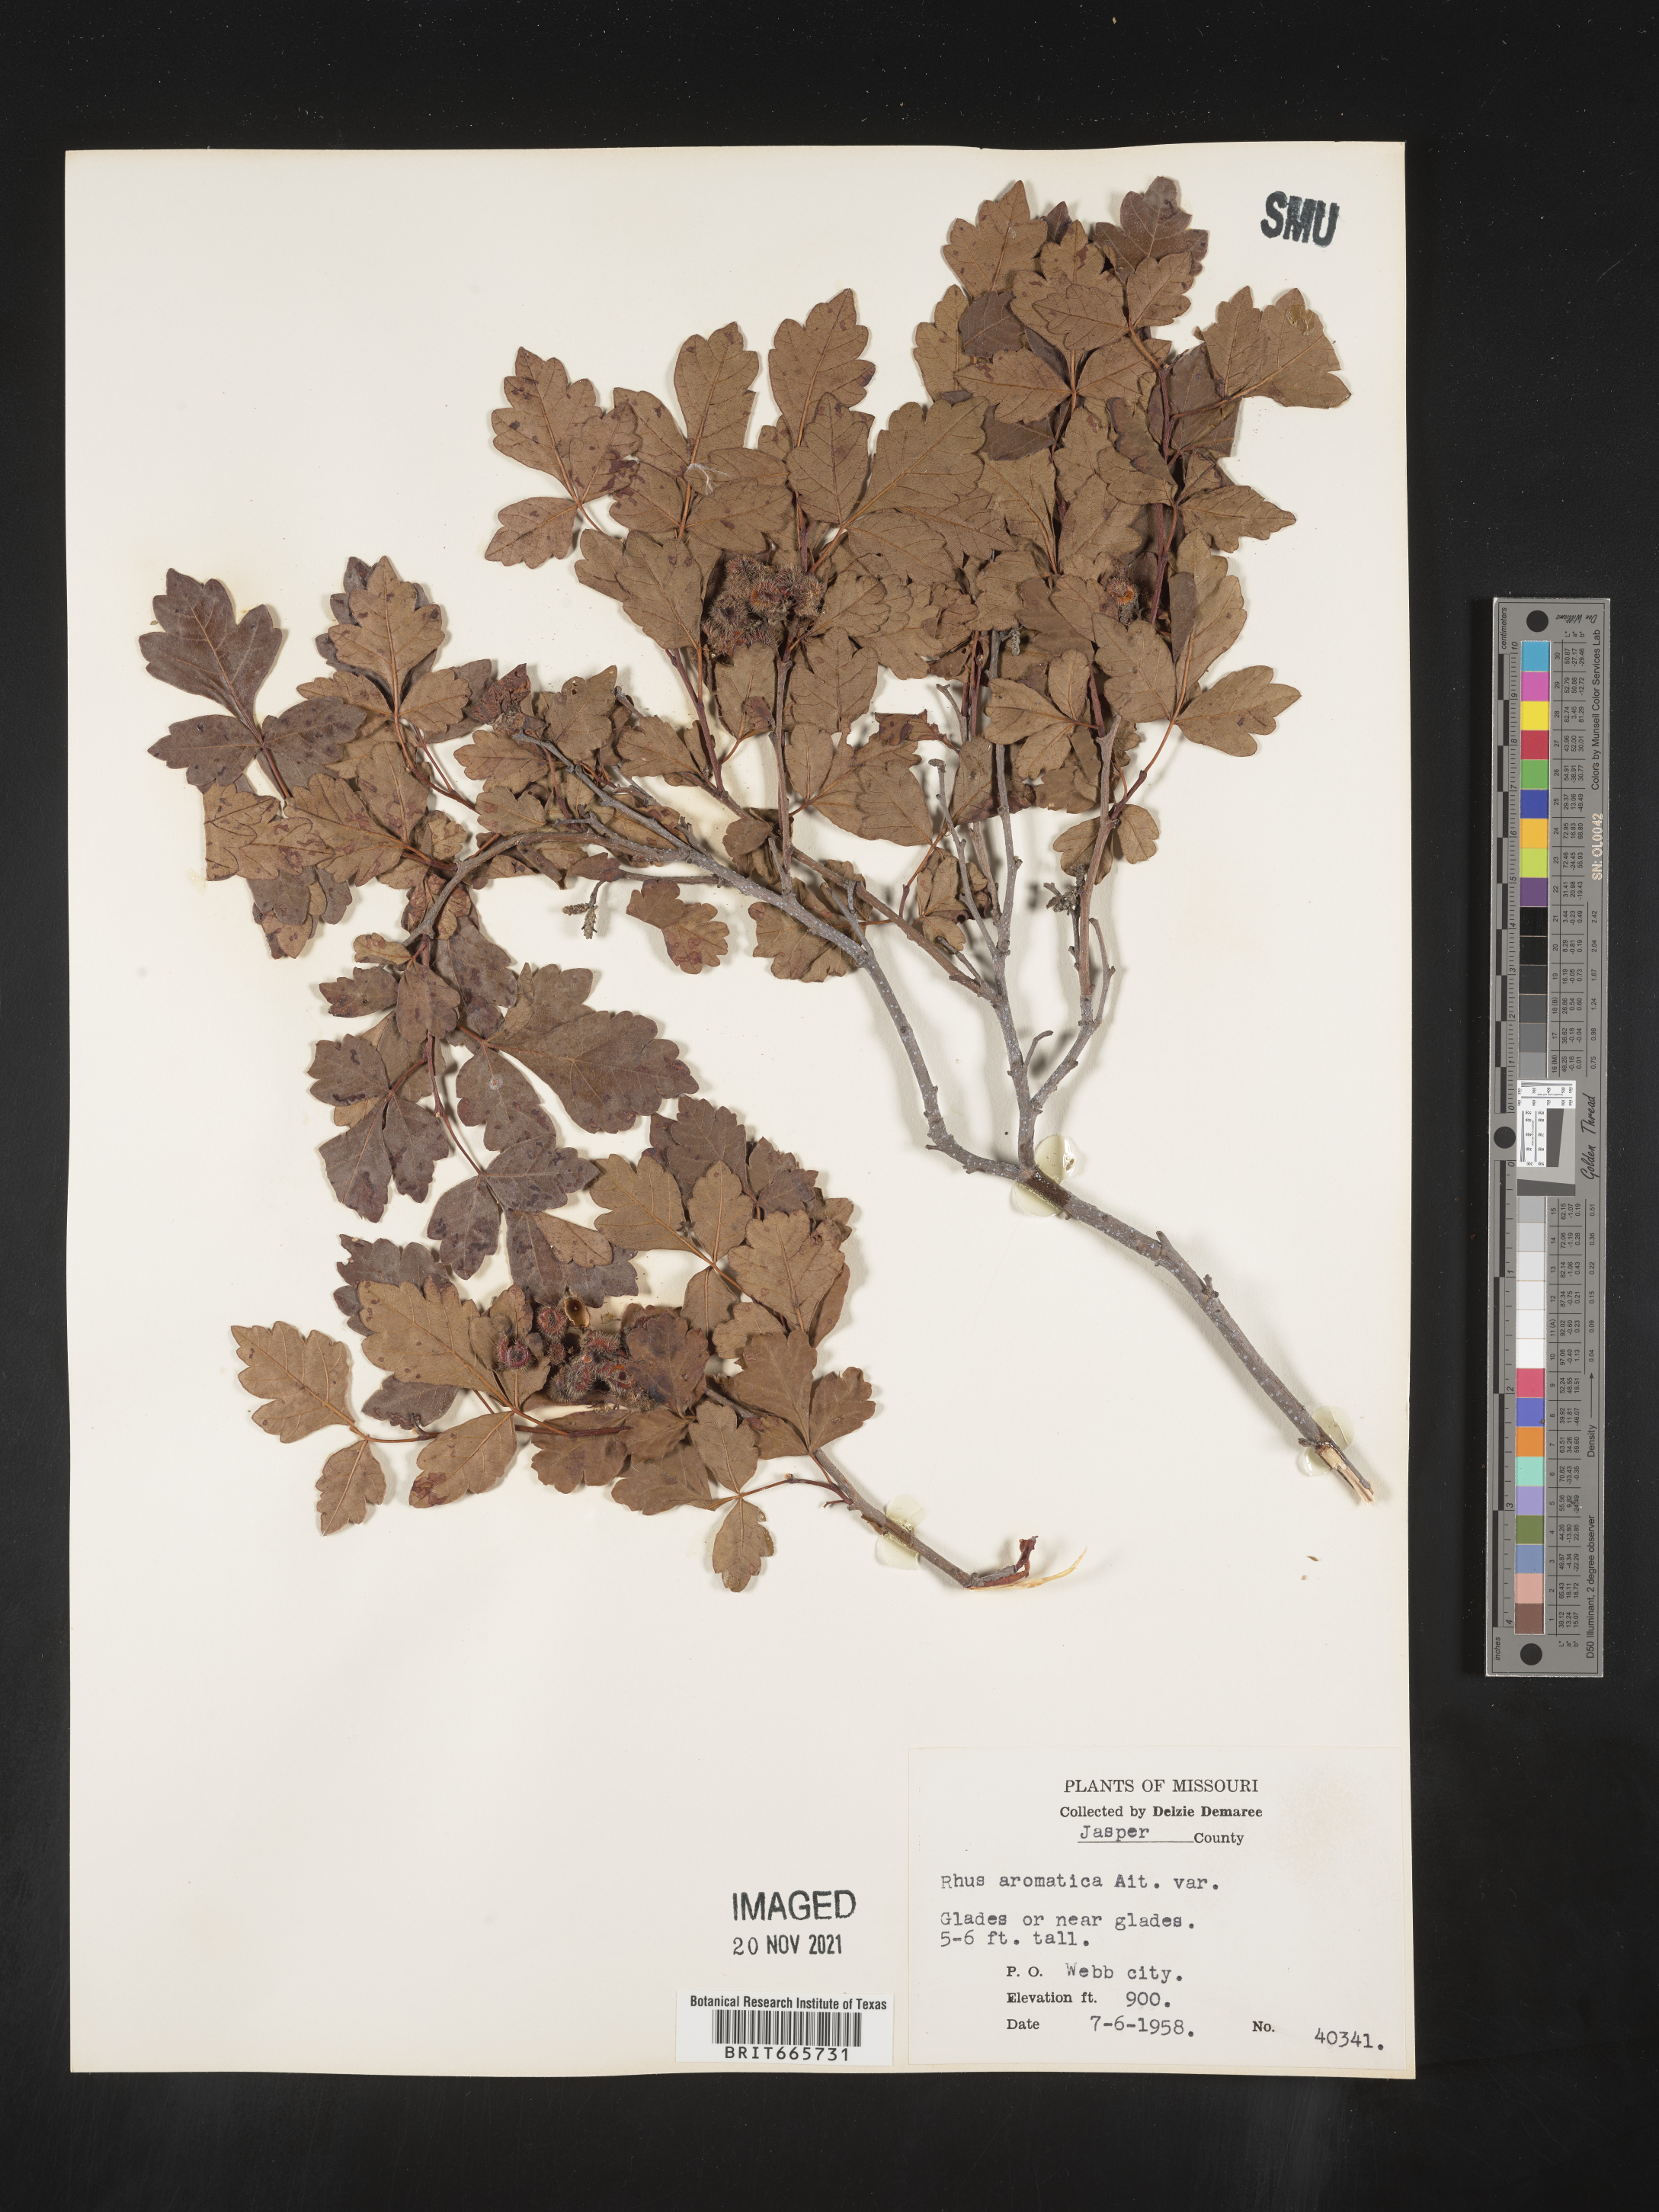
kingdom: Plantae
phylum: Tracheophyta
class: Magnoliopsida
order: Sapindales
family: Anacardiaceae
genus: Rhus
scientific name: Rhus aromatica
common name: Aromatic sumac
